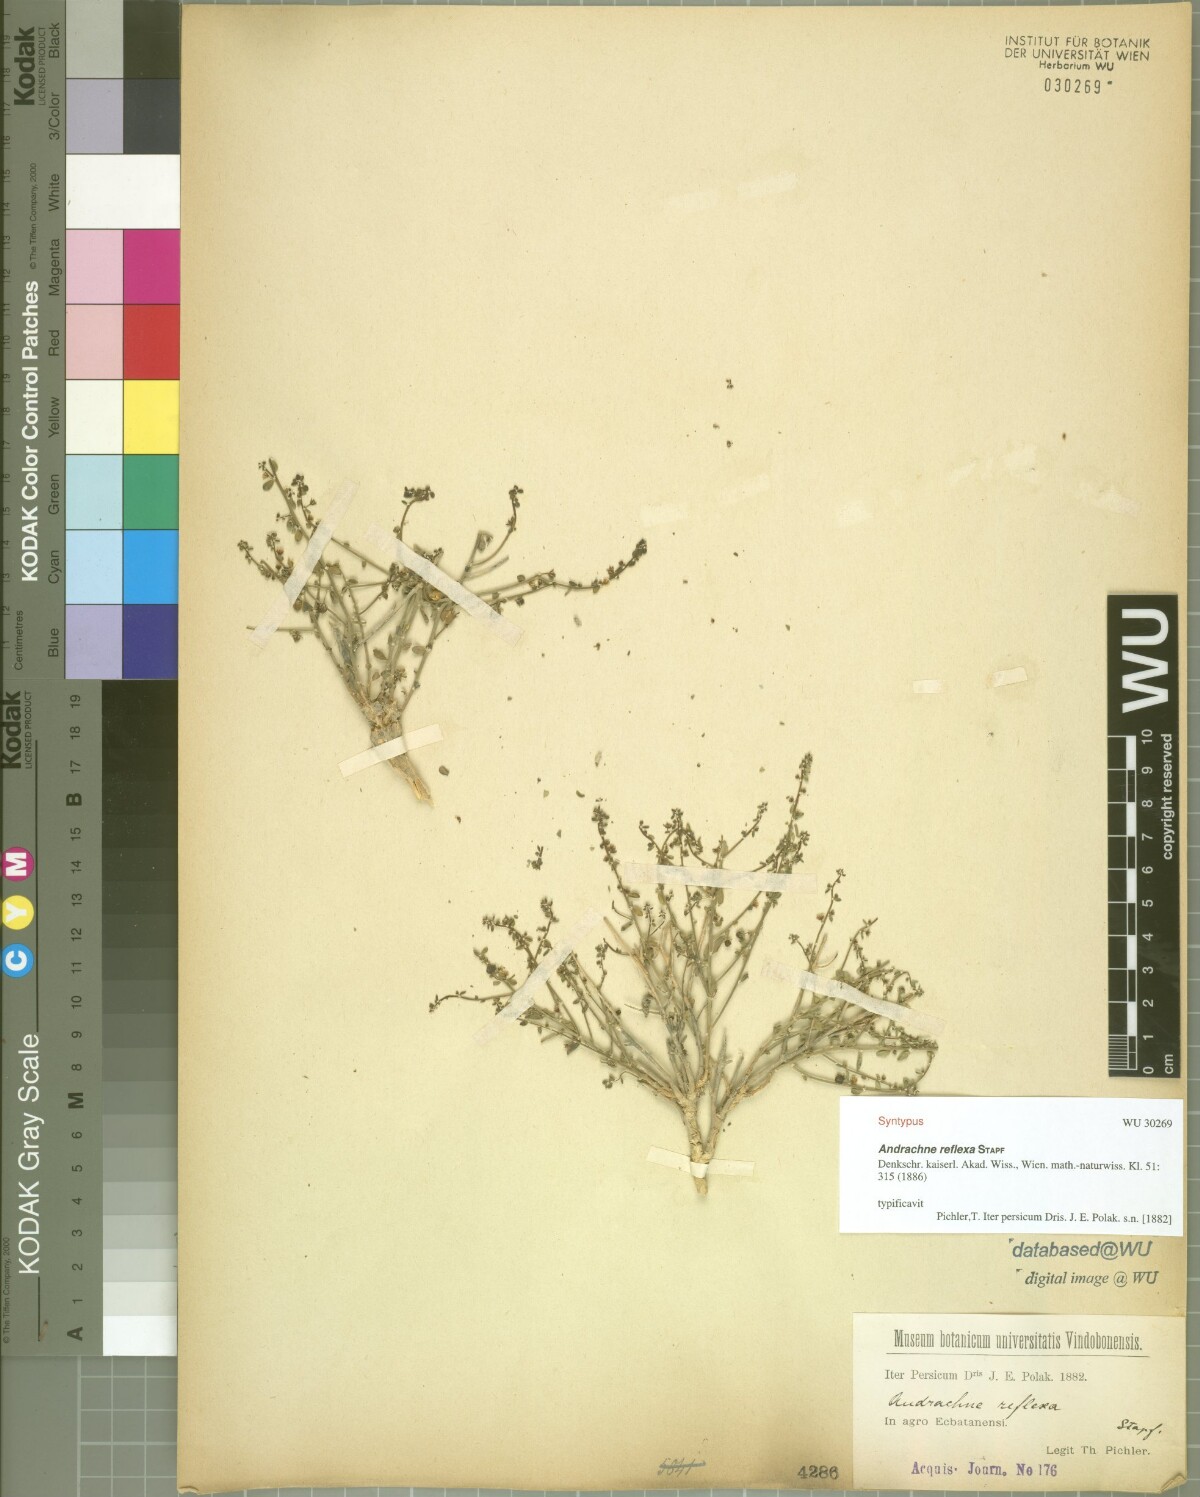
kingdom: Plantae
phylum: Tracheophyta
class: Magnoliopsida
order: Malpighiales
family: Phyllanthaceae
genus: Andrachne
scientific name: Andrachne reflexa
